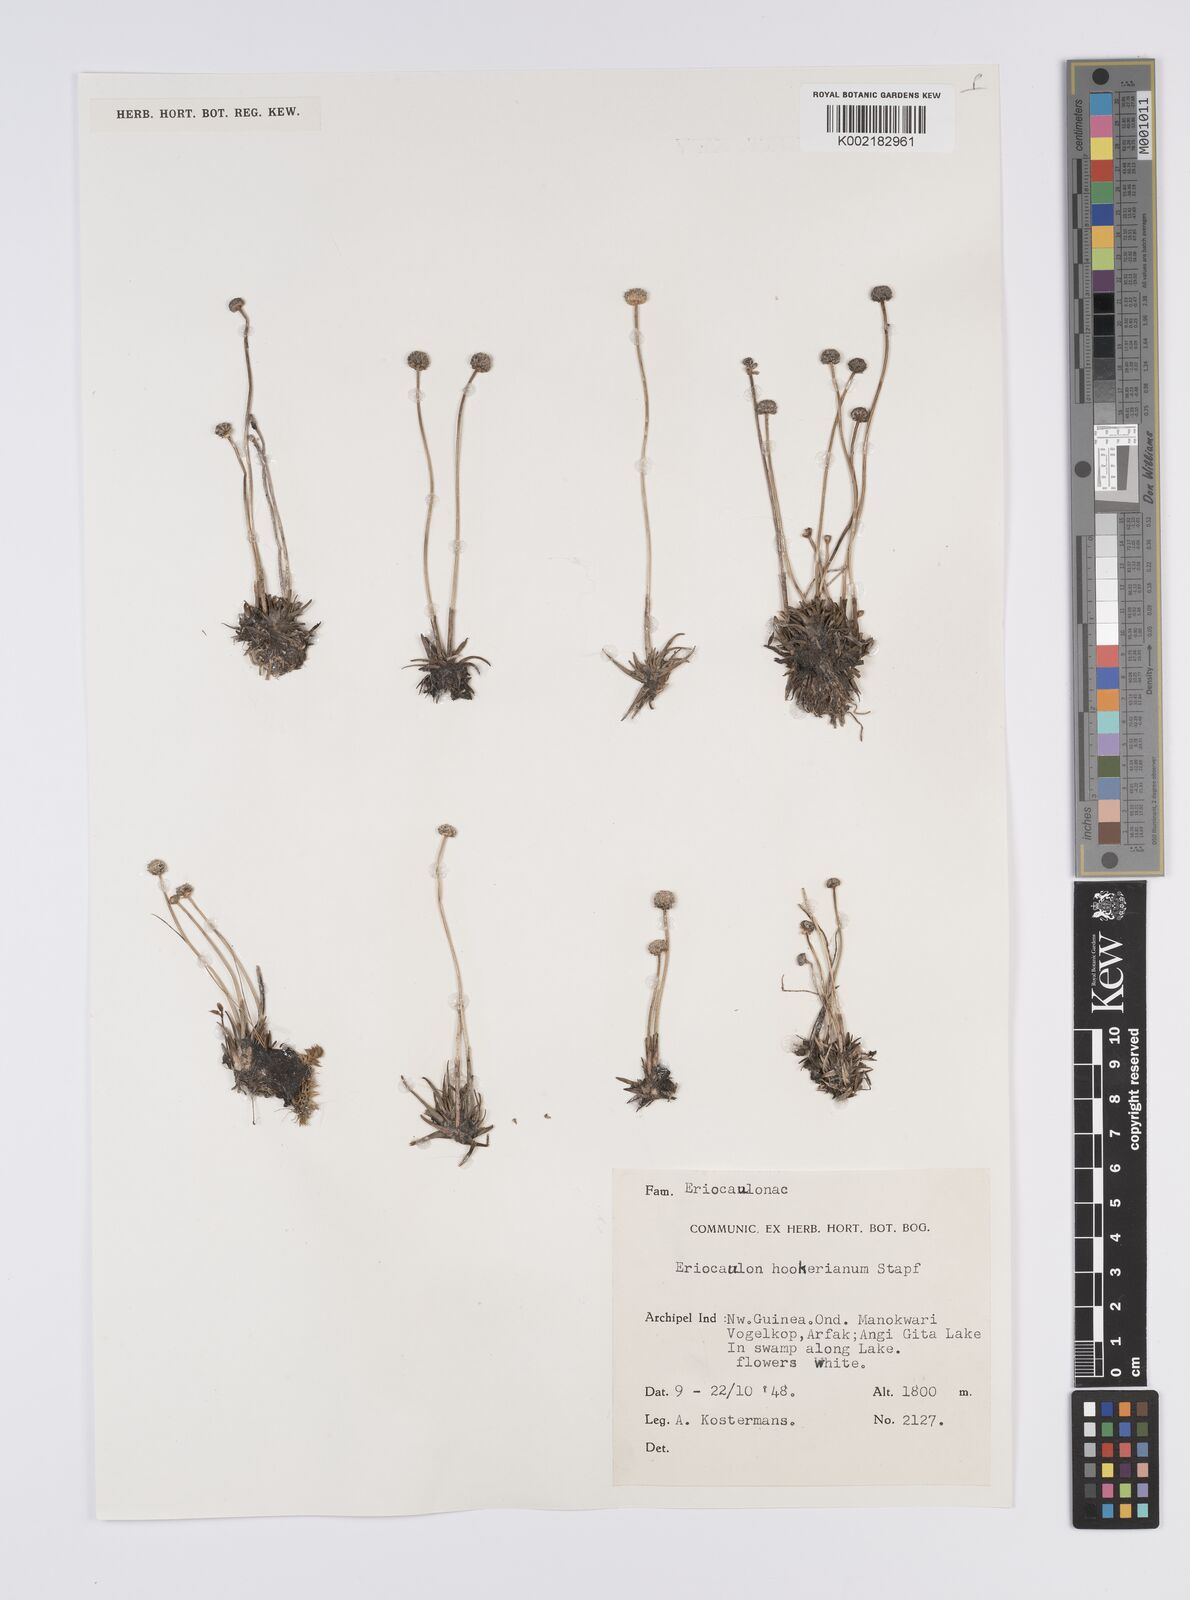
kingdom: Plantae
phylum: Tracheophyta
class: Liliopsida
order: Poales
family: Eriocaulaceae
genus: Eriocaulon
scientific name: Eriocaulon hookerianum
